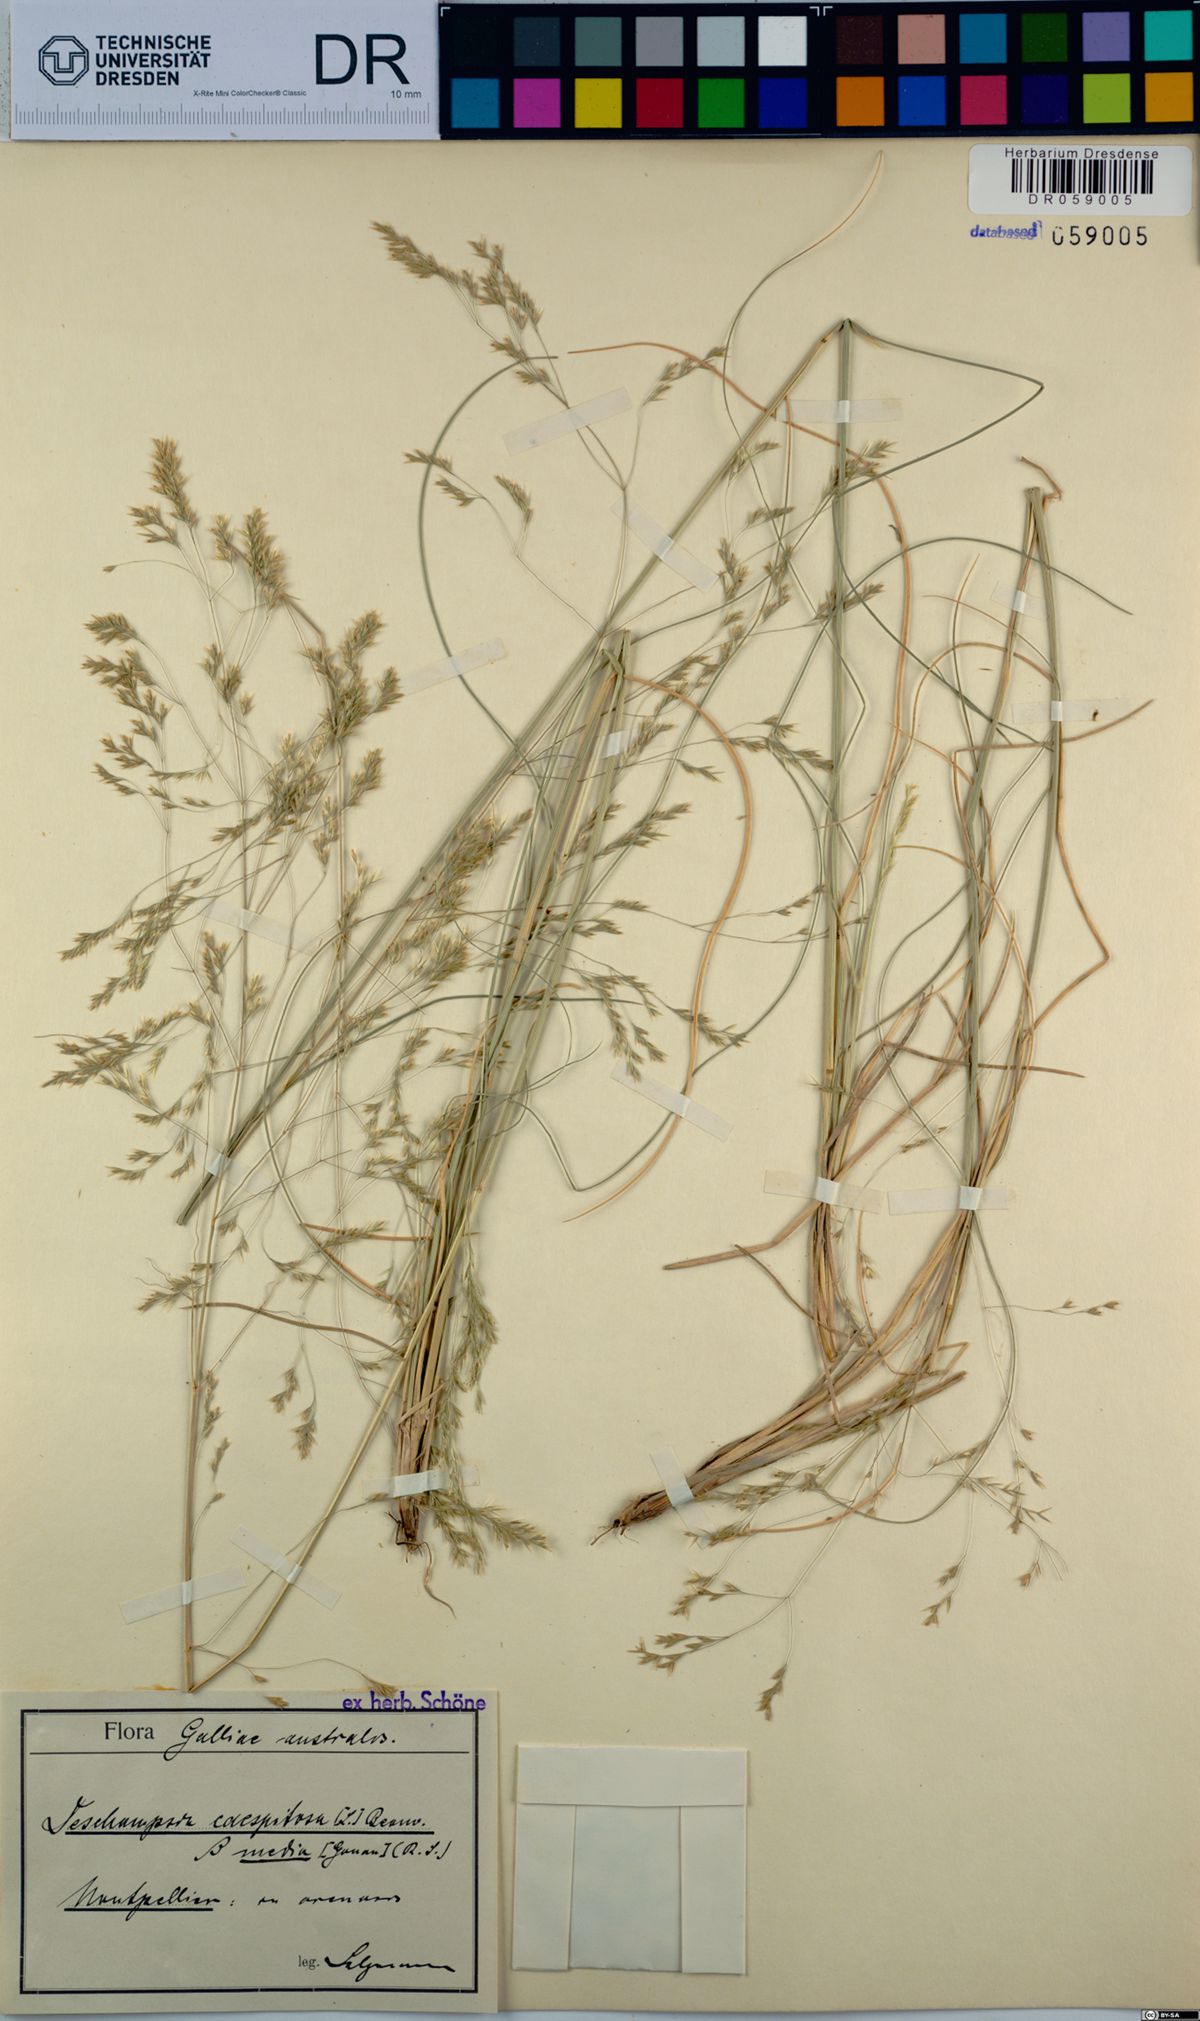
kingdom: Plantae
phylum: Tracheophyta
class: Liliopsida
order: Poales
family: Poaceae
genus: Deschampsia
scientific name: Deschampsia cespitosa
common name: Tufted hair-grass
